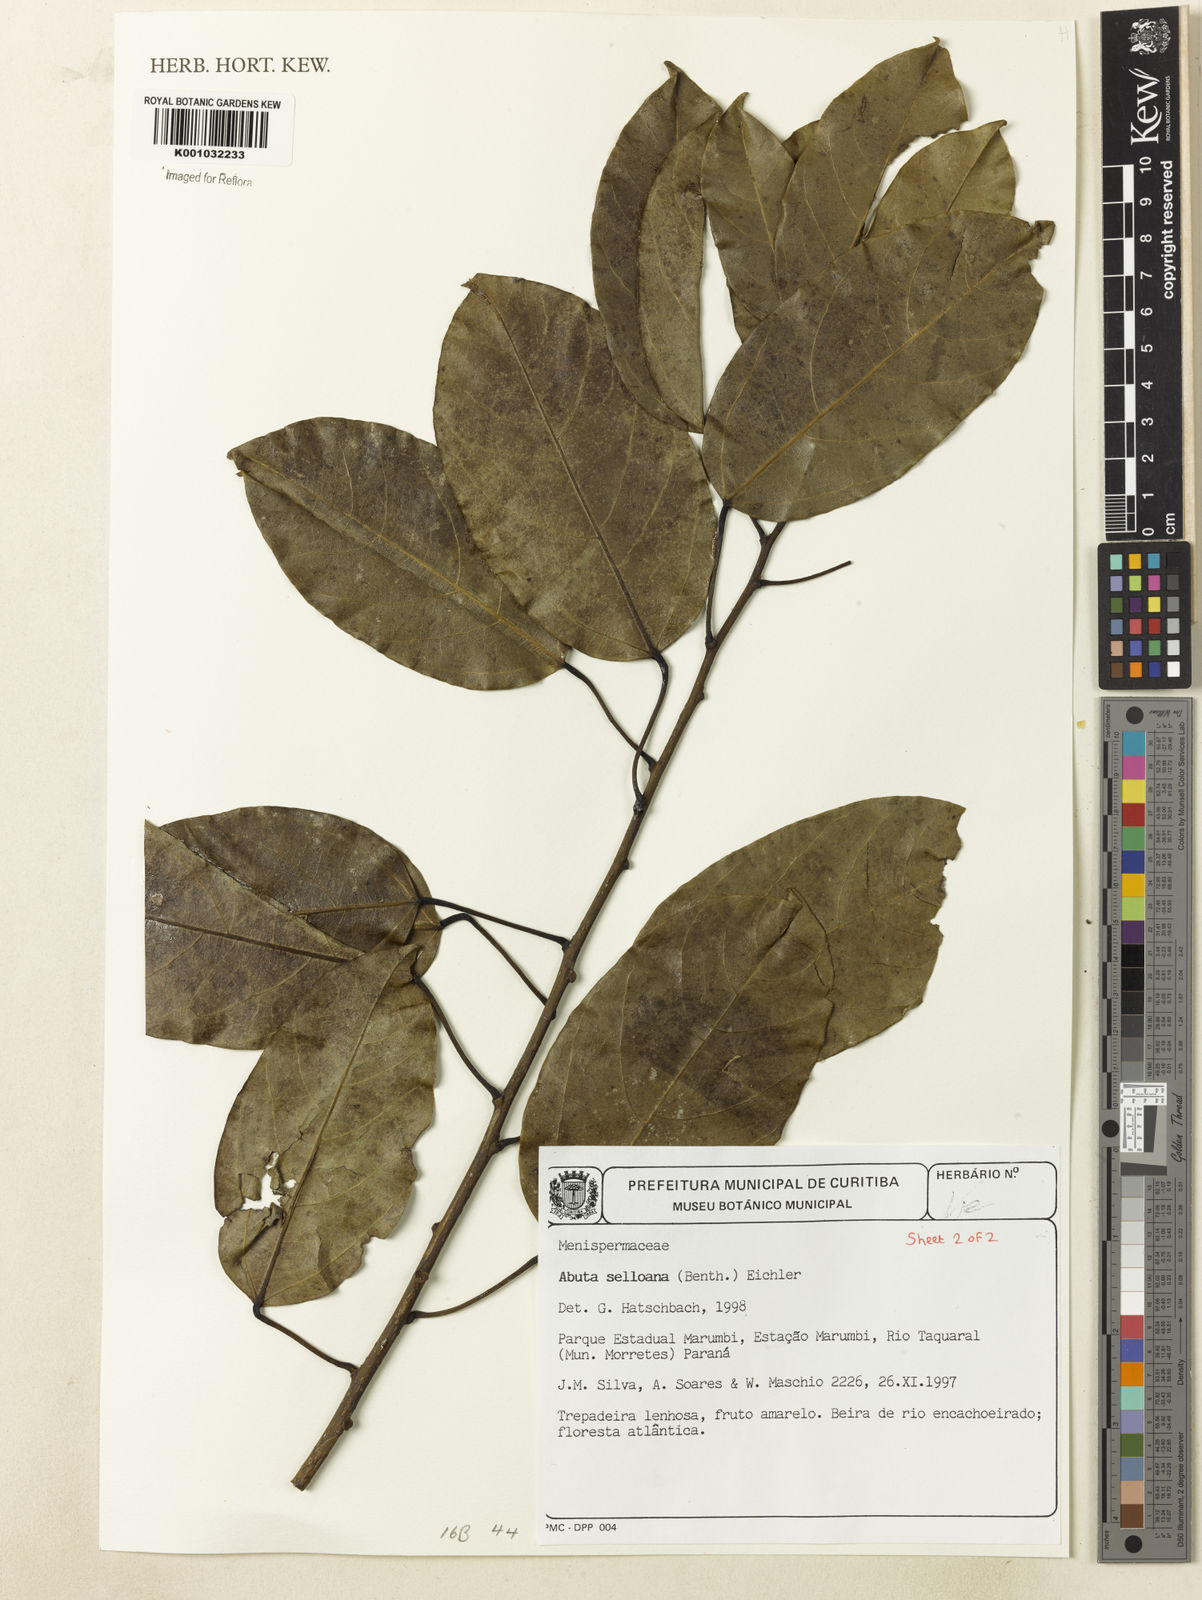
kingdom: Plantae
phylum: Tracheophyta
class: Magnoliopsida
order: Ranunculales
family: Menispermaceae
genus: Abuta
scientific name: Abuta selloana
